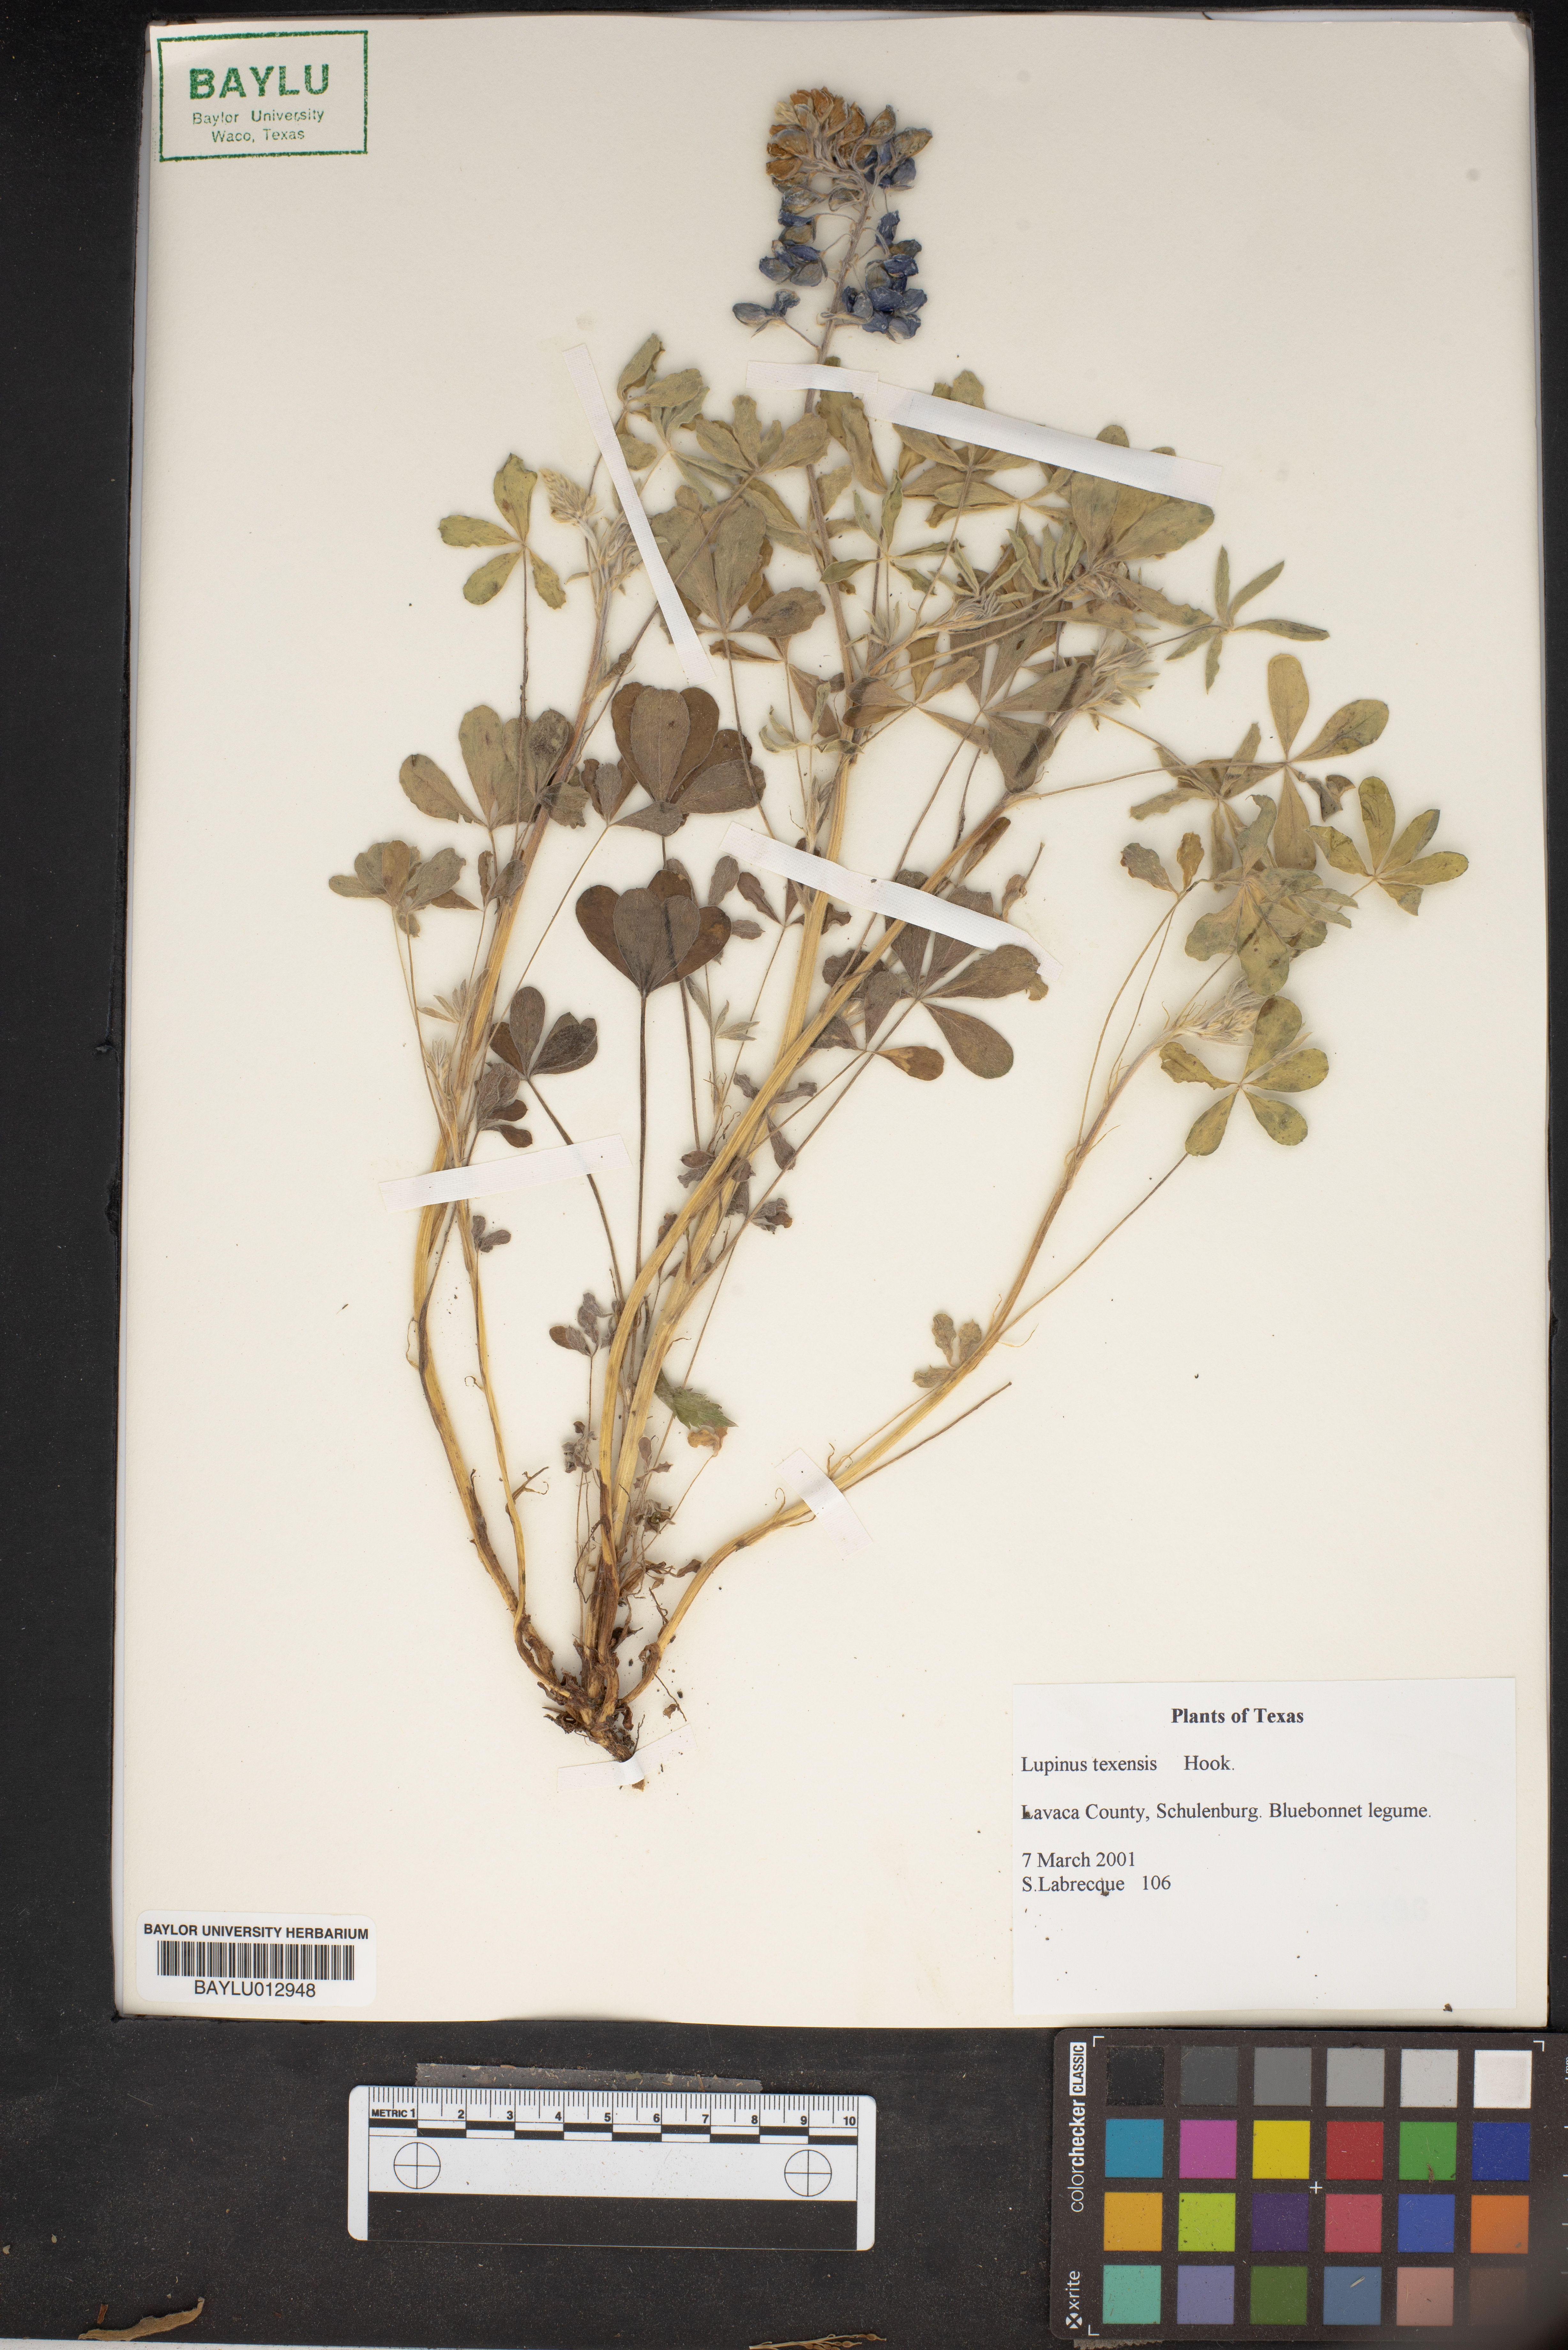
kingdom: Plantae
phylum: Tracheophyta
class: Magnoliopsida
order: Fabales
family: Fabaceae
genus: Lupinus
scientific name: Lupinus texensis
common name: Texas bluebonnet
